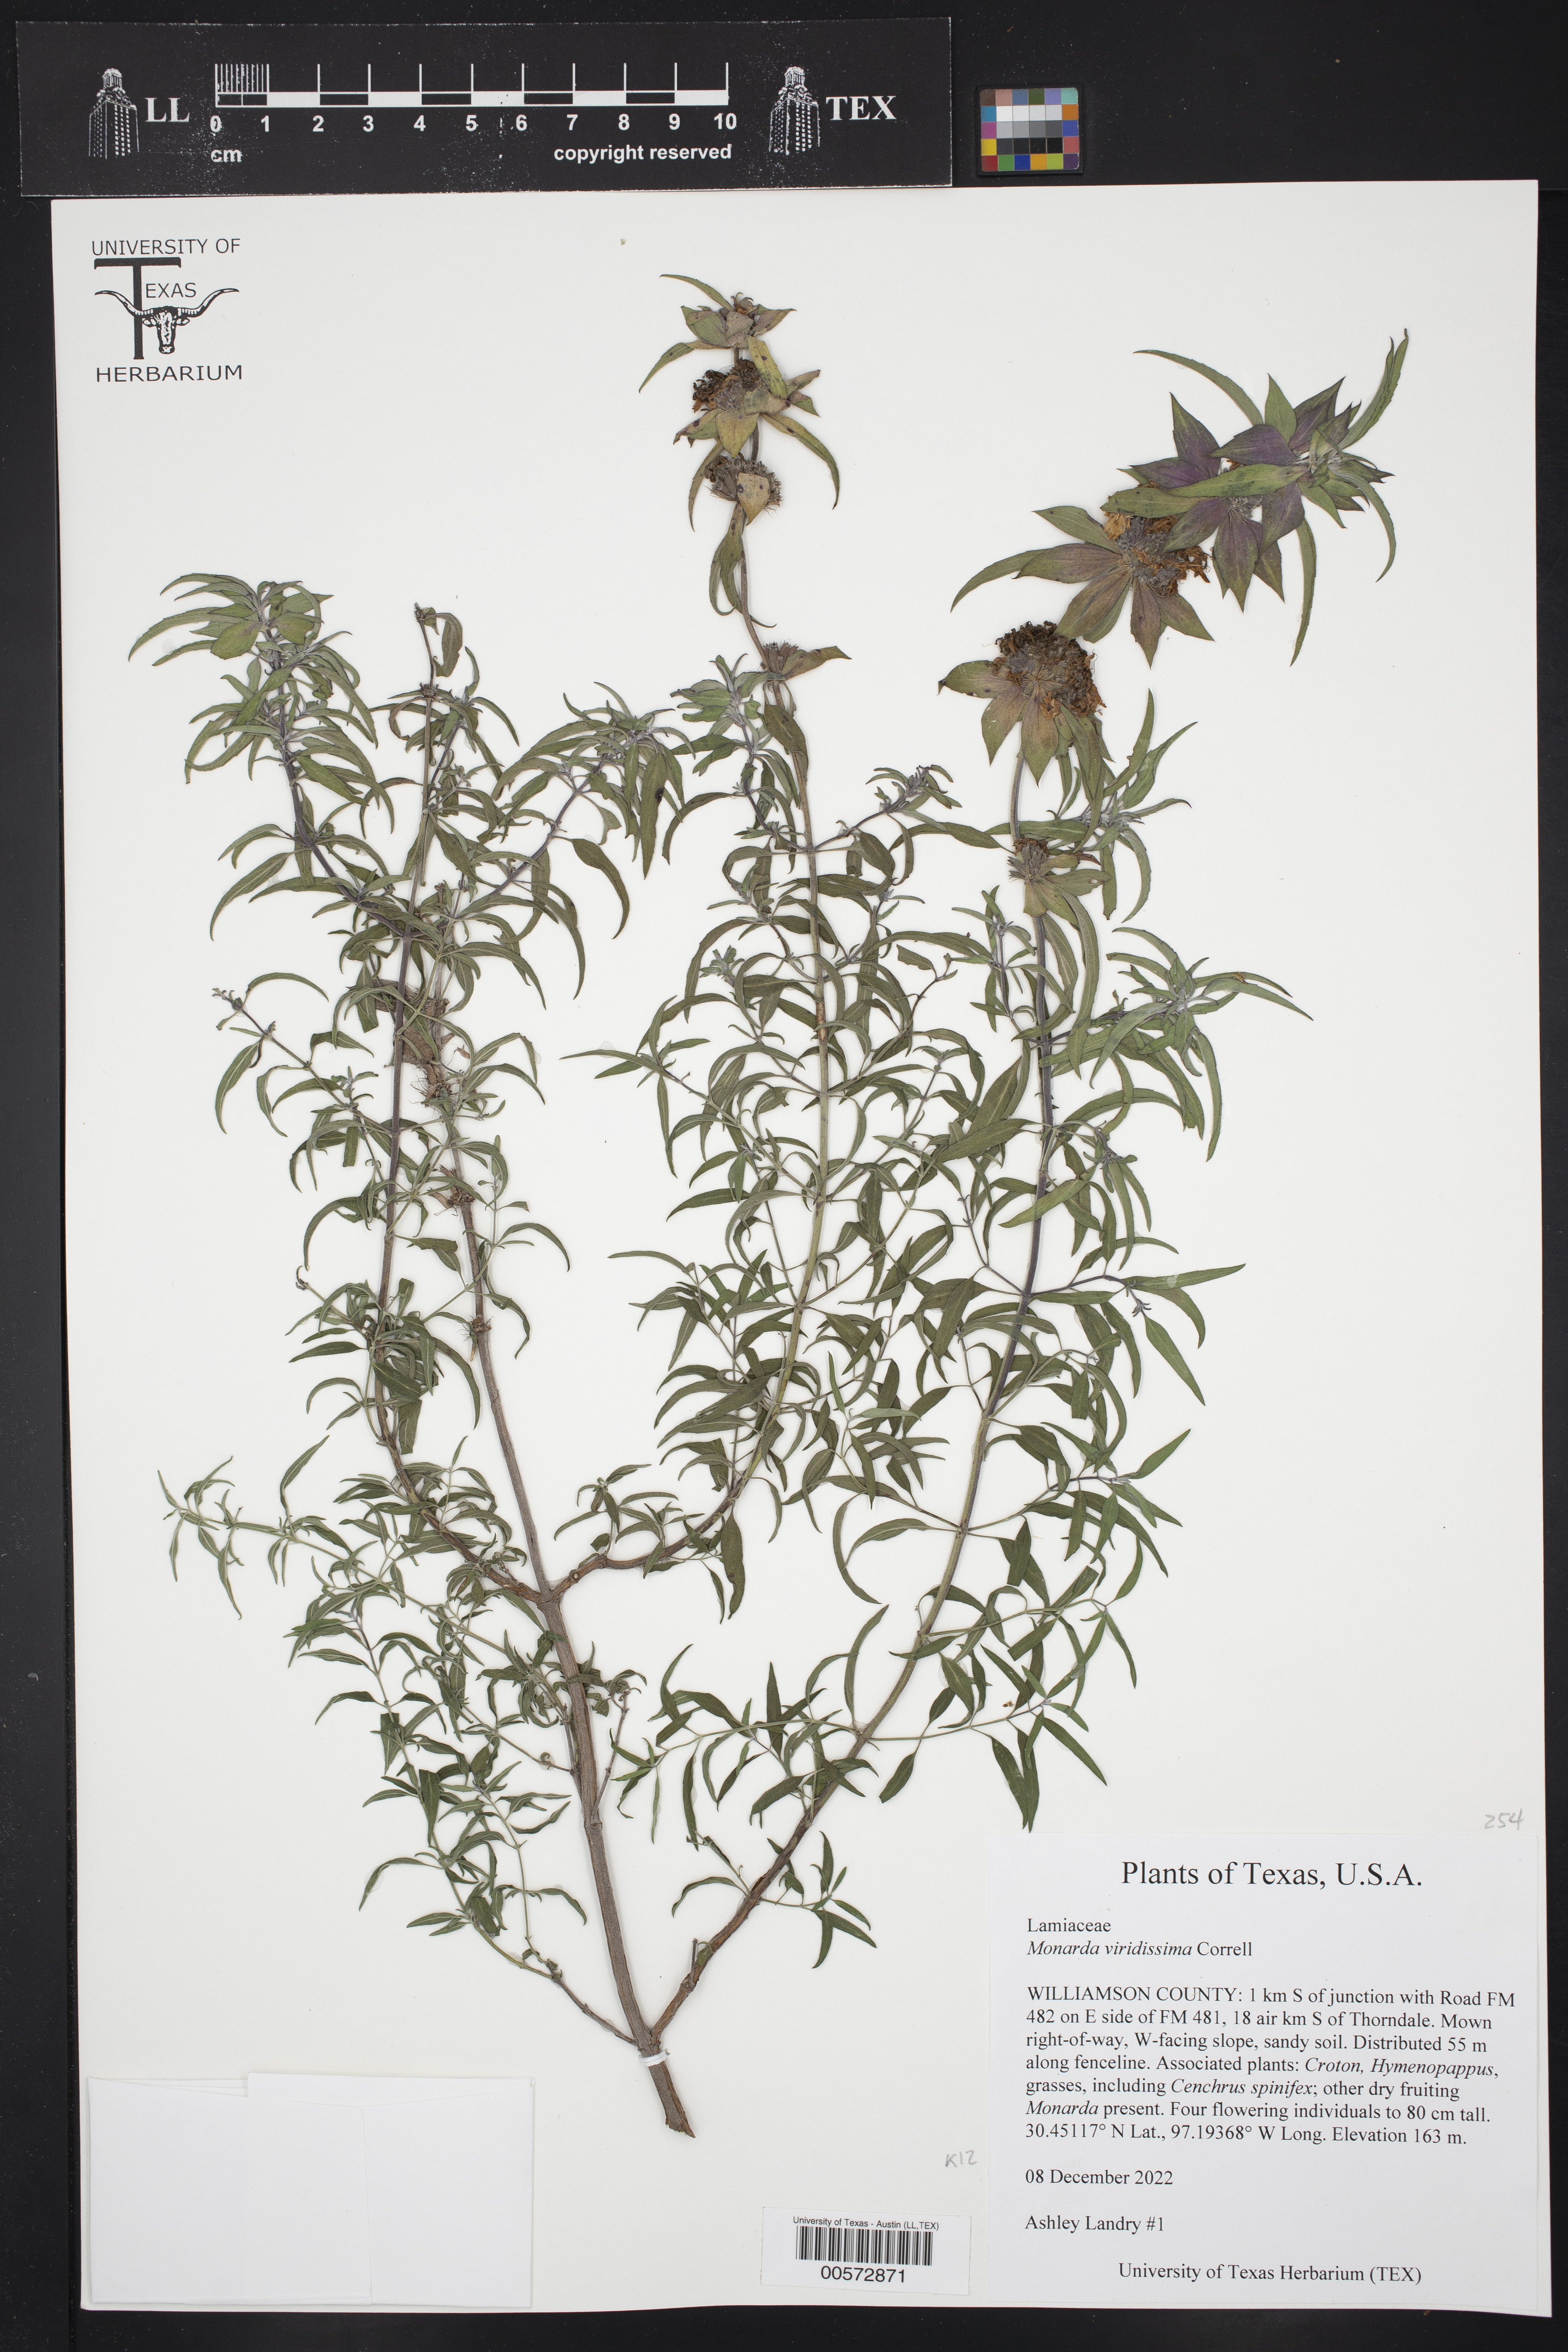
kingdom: Plantae
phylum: Tracheophyta
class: Magnoliopsida
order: Lamiales
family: Lamiaceae
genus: Monarda
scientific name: Monarda viridissima
